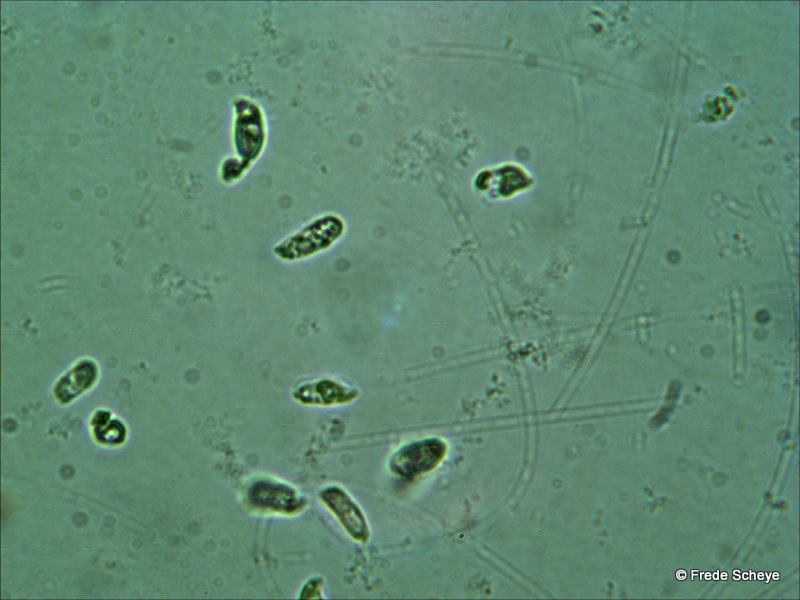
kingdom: Fungi
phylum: Basidiomycota
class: Agaricomycetes
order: Agaricales
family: Mycenaceae
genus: Mycena
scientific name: Mycena zephirus
